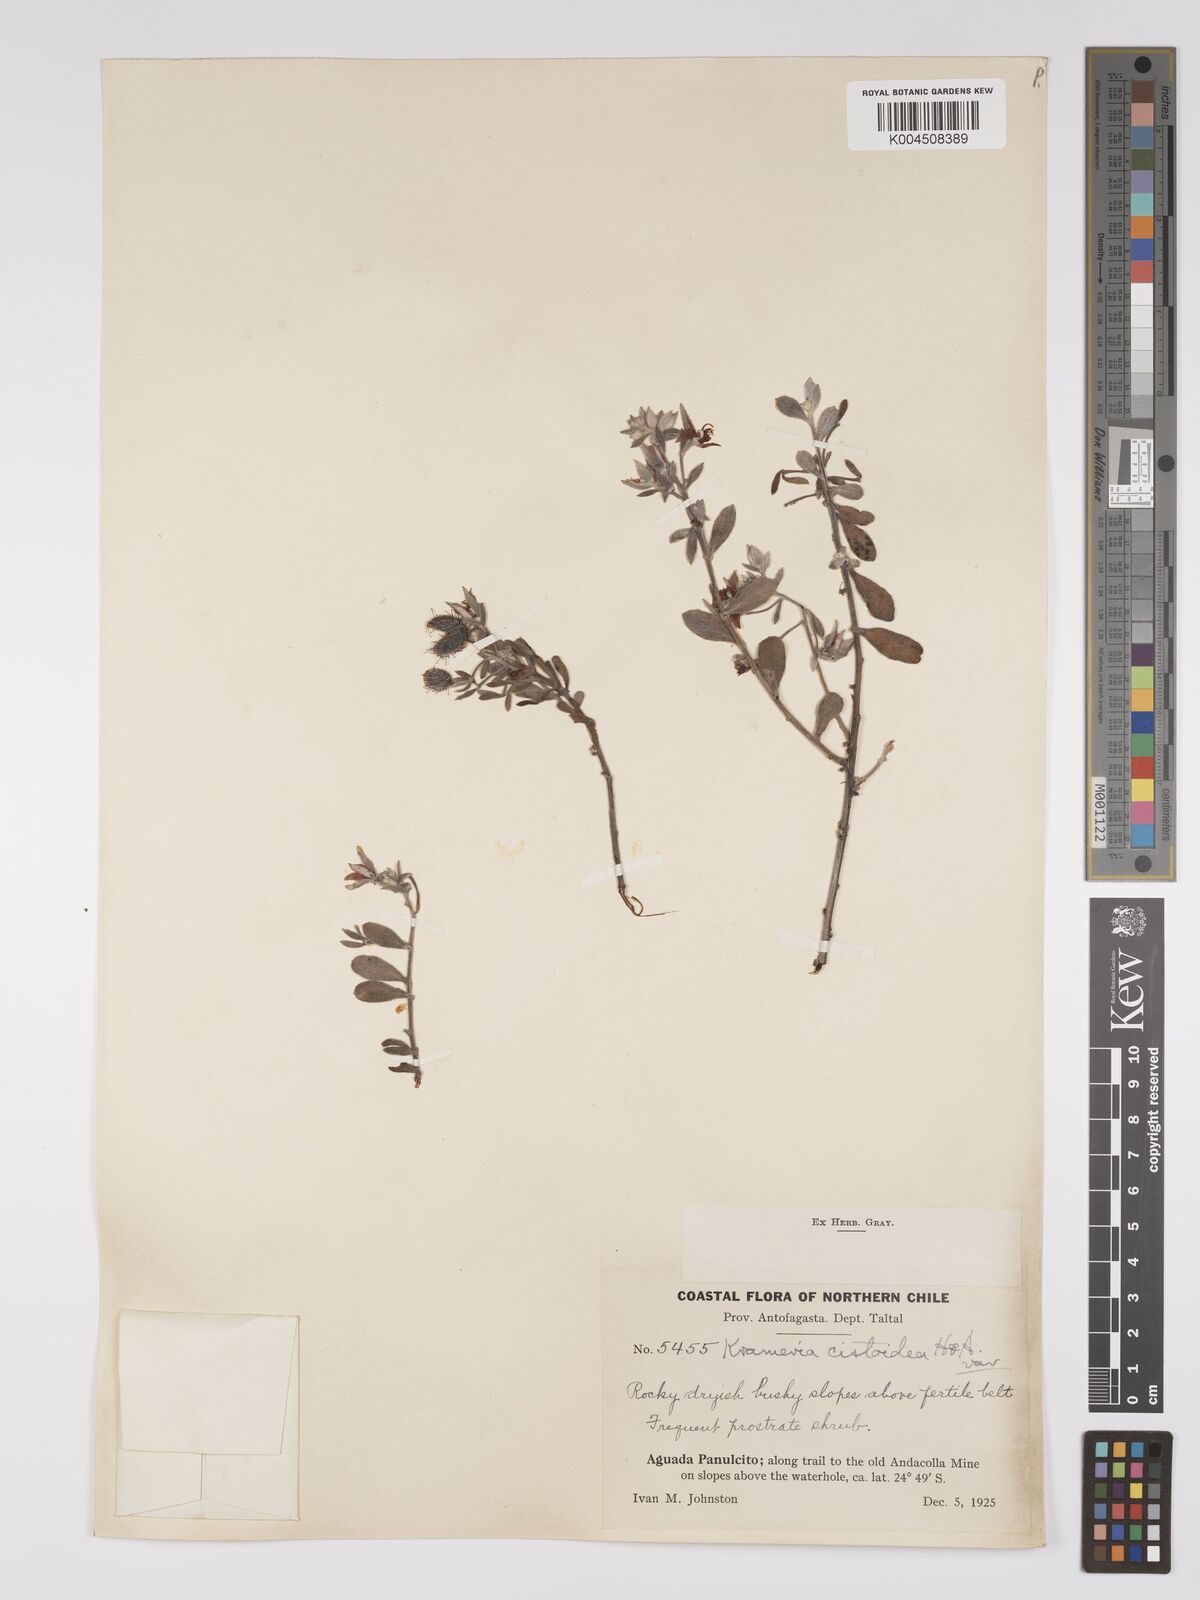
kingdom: Plantae
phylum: Tracheophyta
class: Magnoliopsida
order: Zygophyllales
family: Krameriaceae
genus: Krameria
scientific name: Krameria cistoidea
